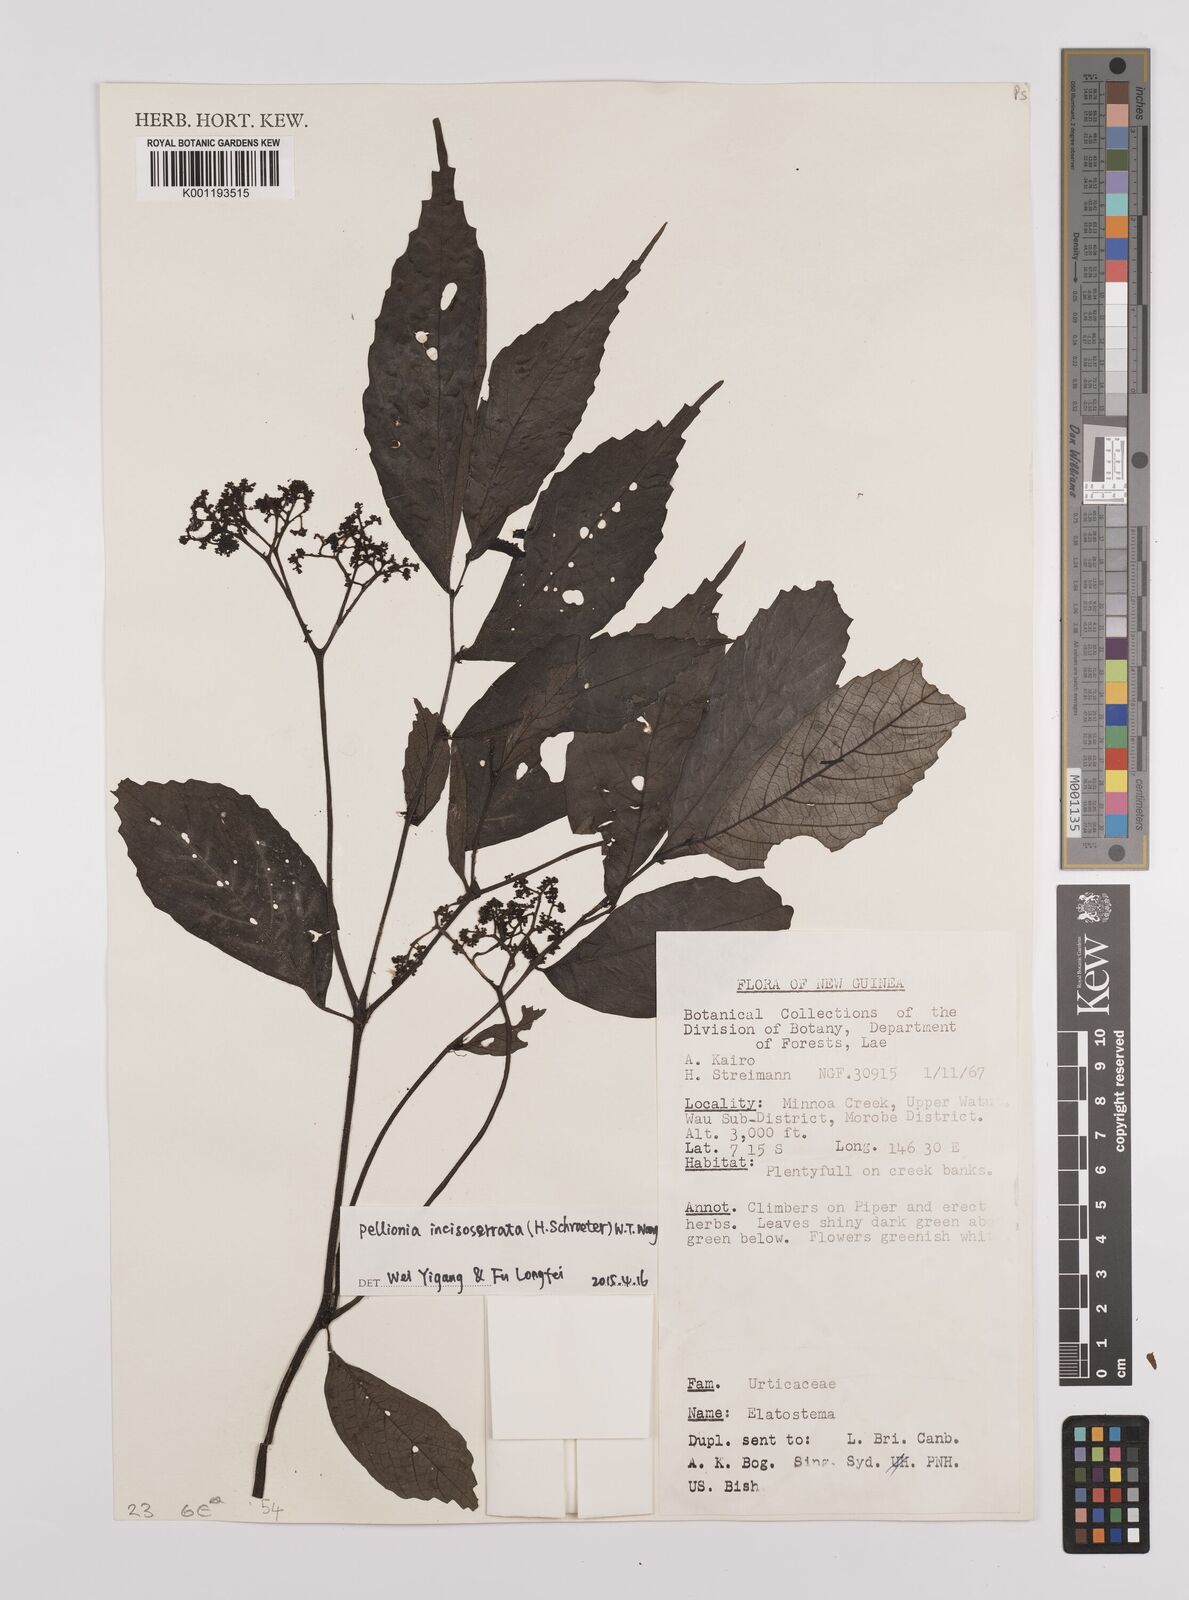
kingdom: Plantae
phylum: Tracheophyta
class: Magnoliopsida
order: Rosales
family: Urticaceae
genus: Elatostema
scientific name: Elatostema incisoserratum
